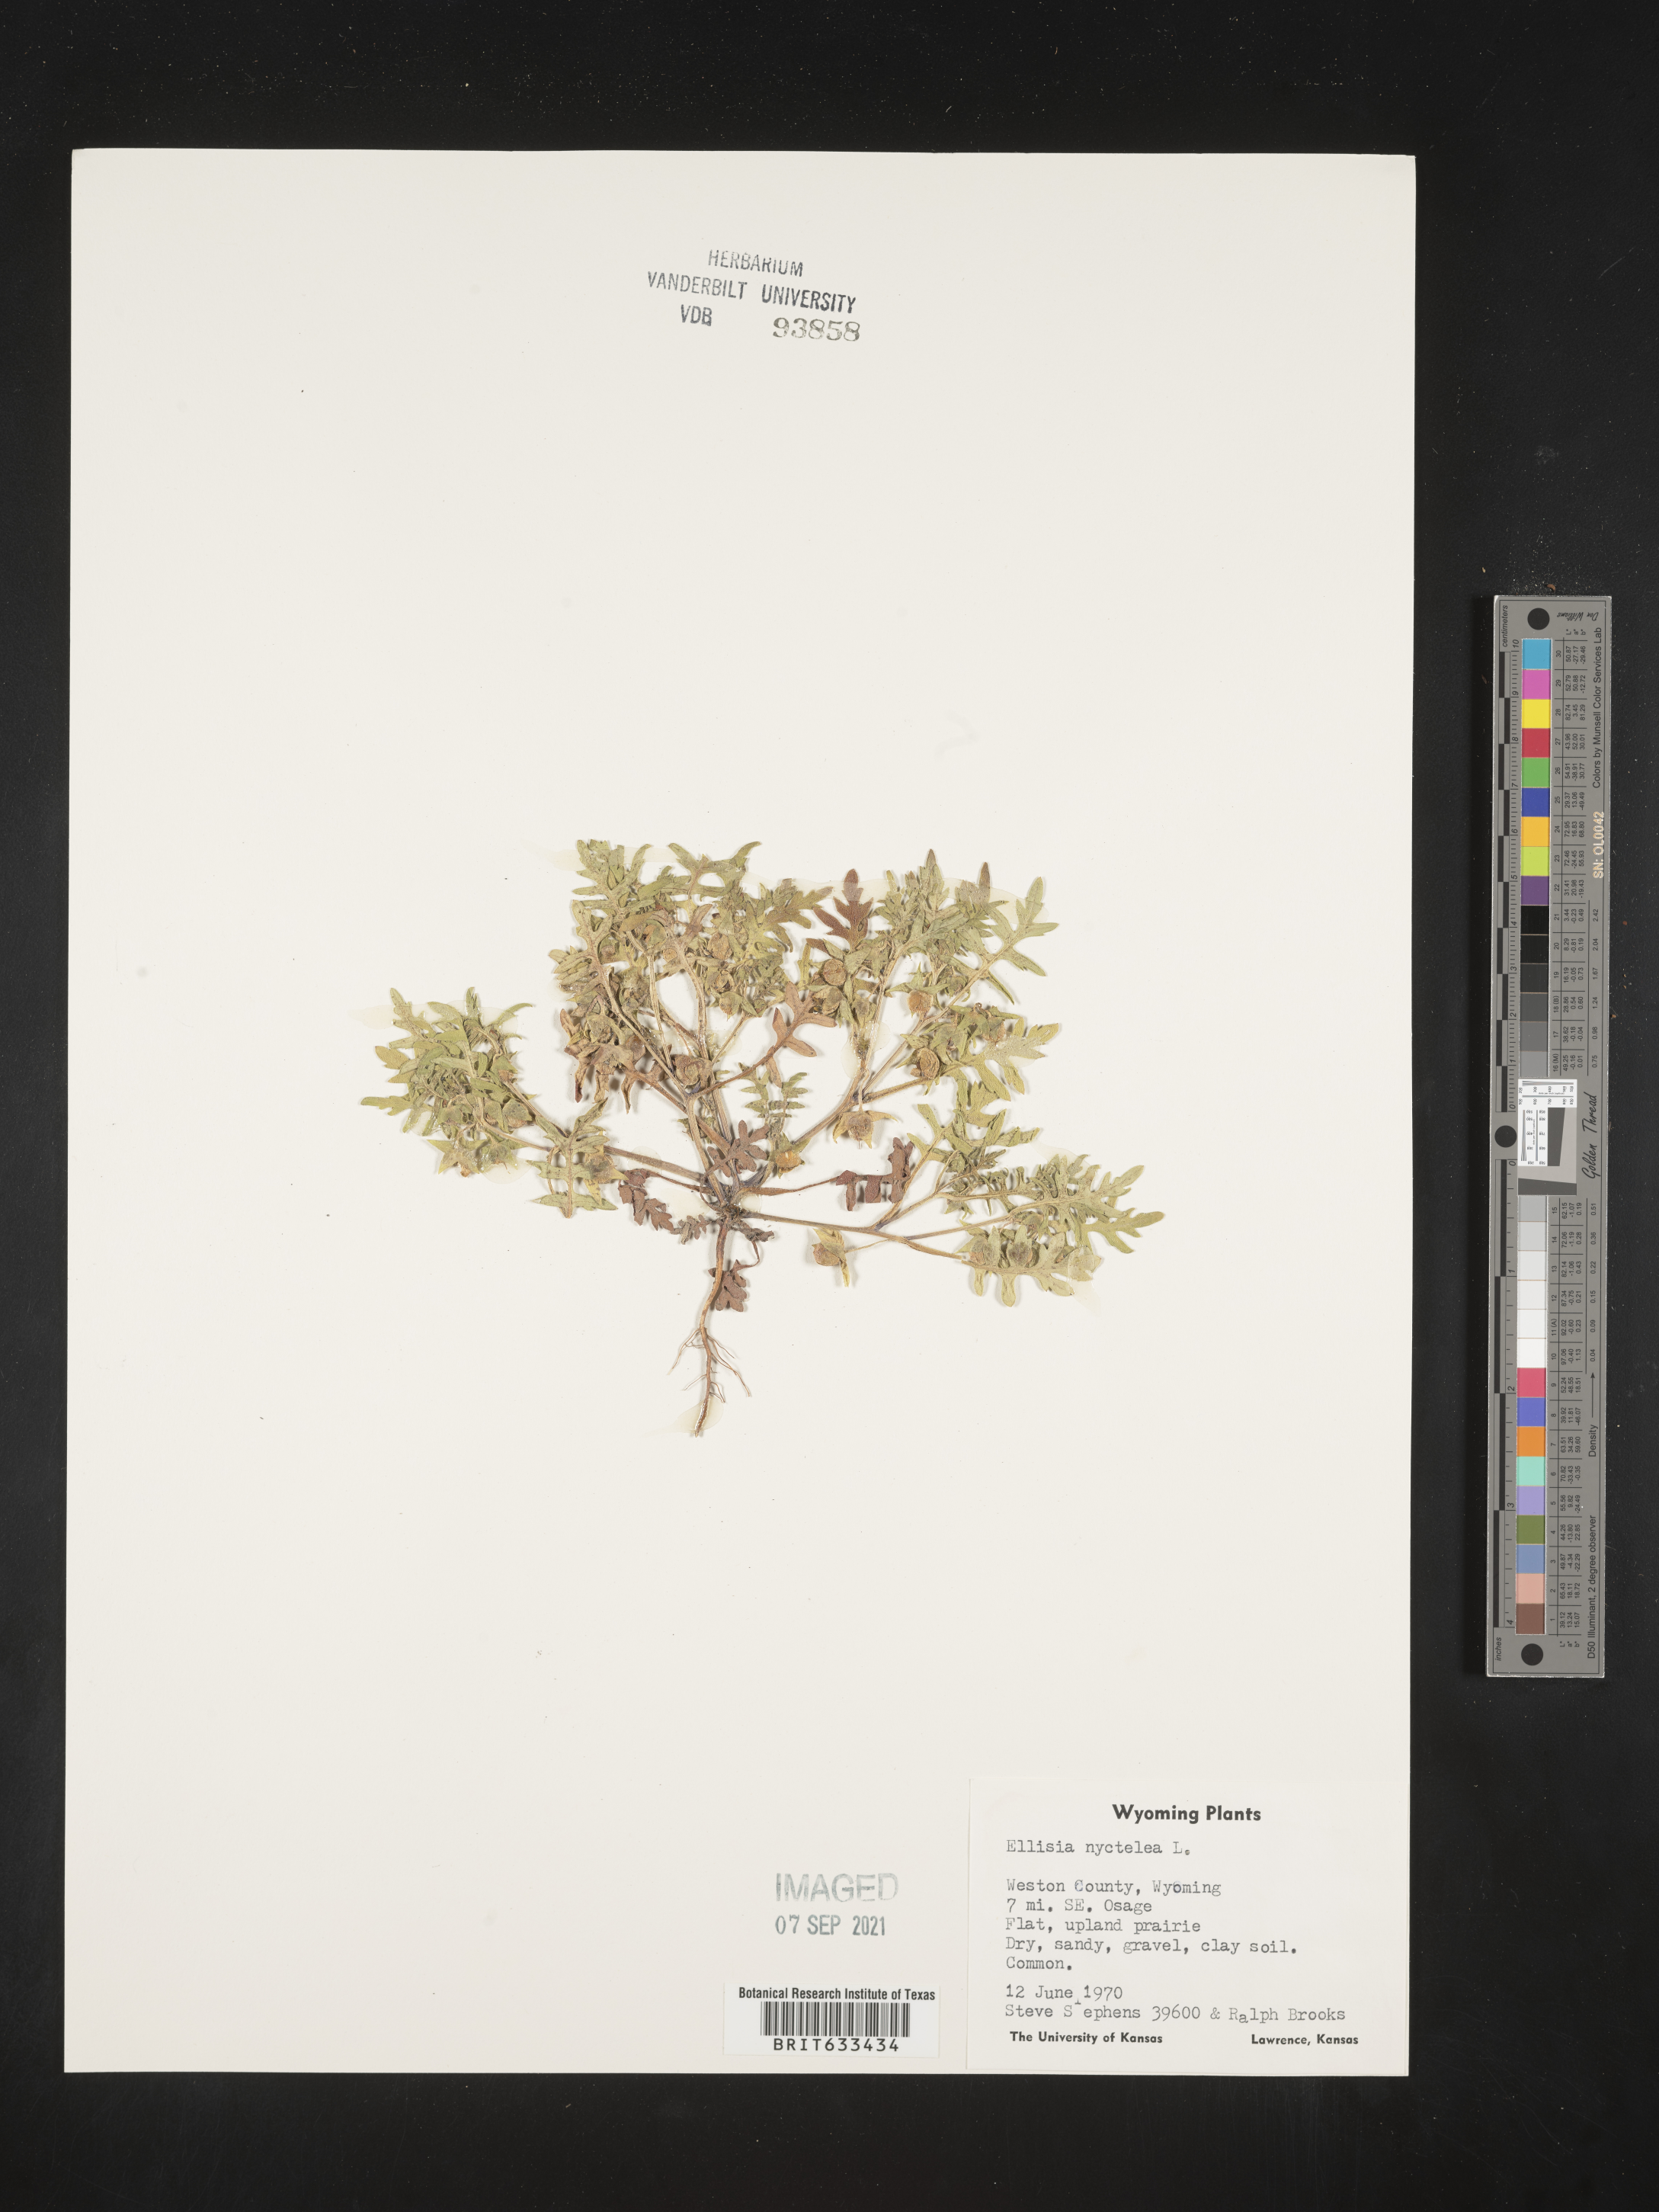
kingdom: Plantae
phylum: Tracheophyta
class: Magnoliopsida
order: Boraginales
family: Hydrophyllaceae
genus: Ellisia
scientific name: Ellisia nyctelea
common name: Aunt lucy
